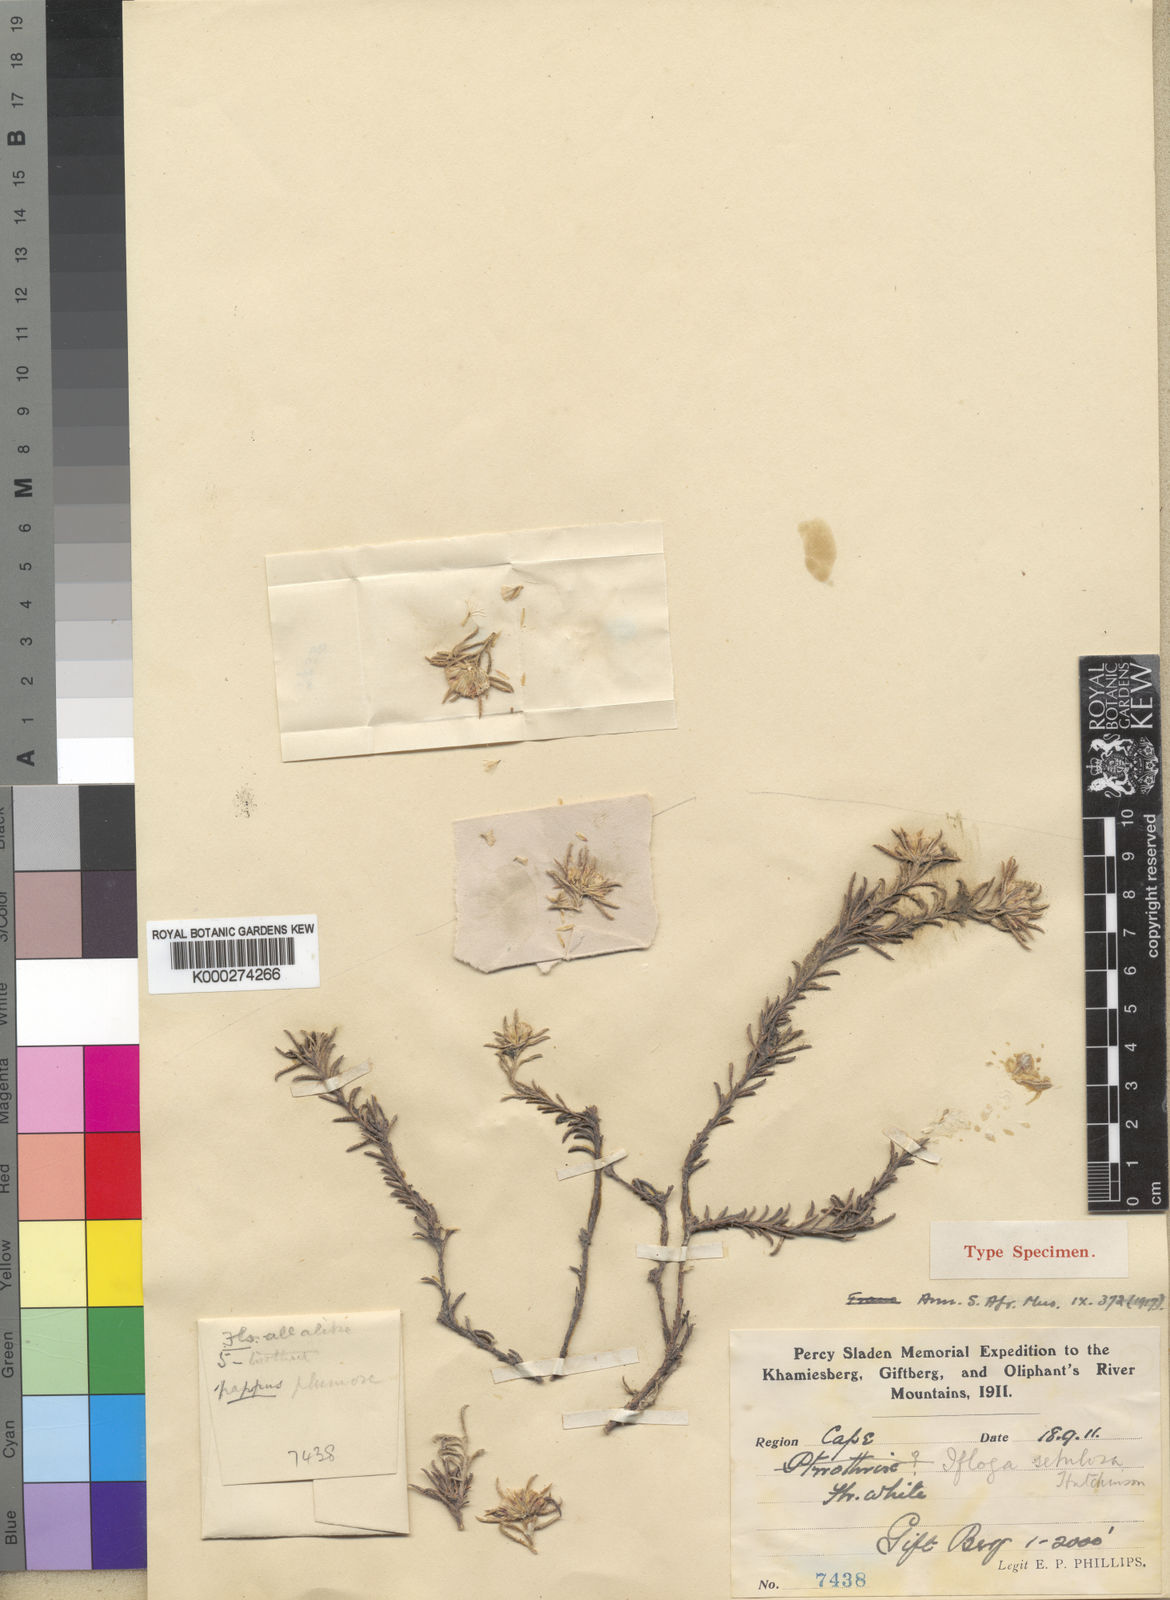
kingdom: Plantae
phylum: Tracheophyta
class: Magnoliopsida
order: Asterales
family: Asteraceae
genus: Elytropappus
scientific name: Elytropappus hispidus
